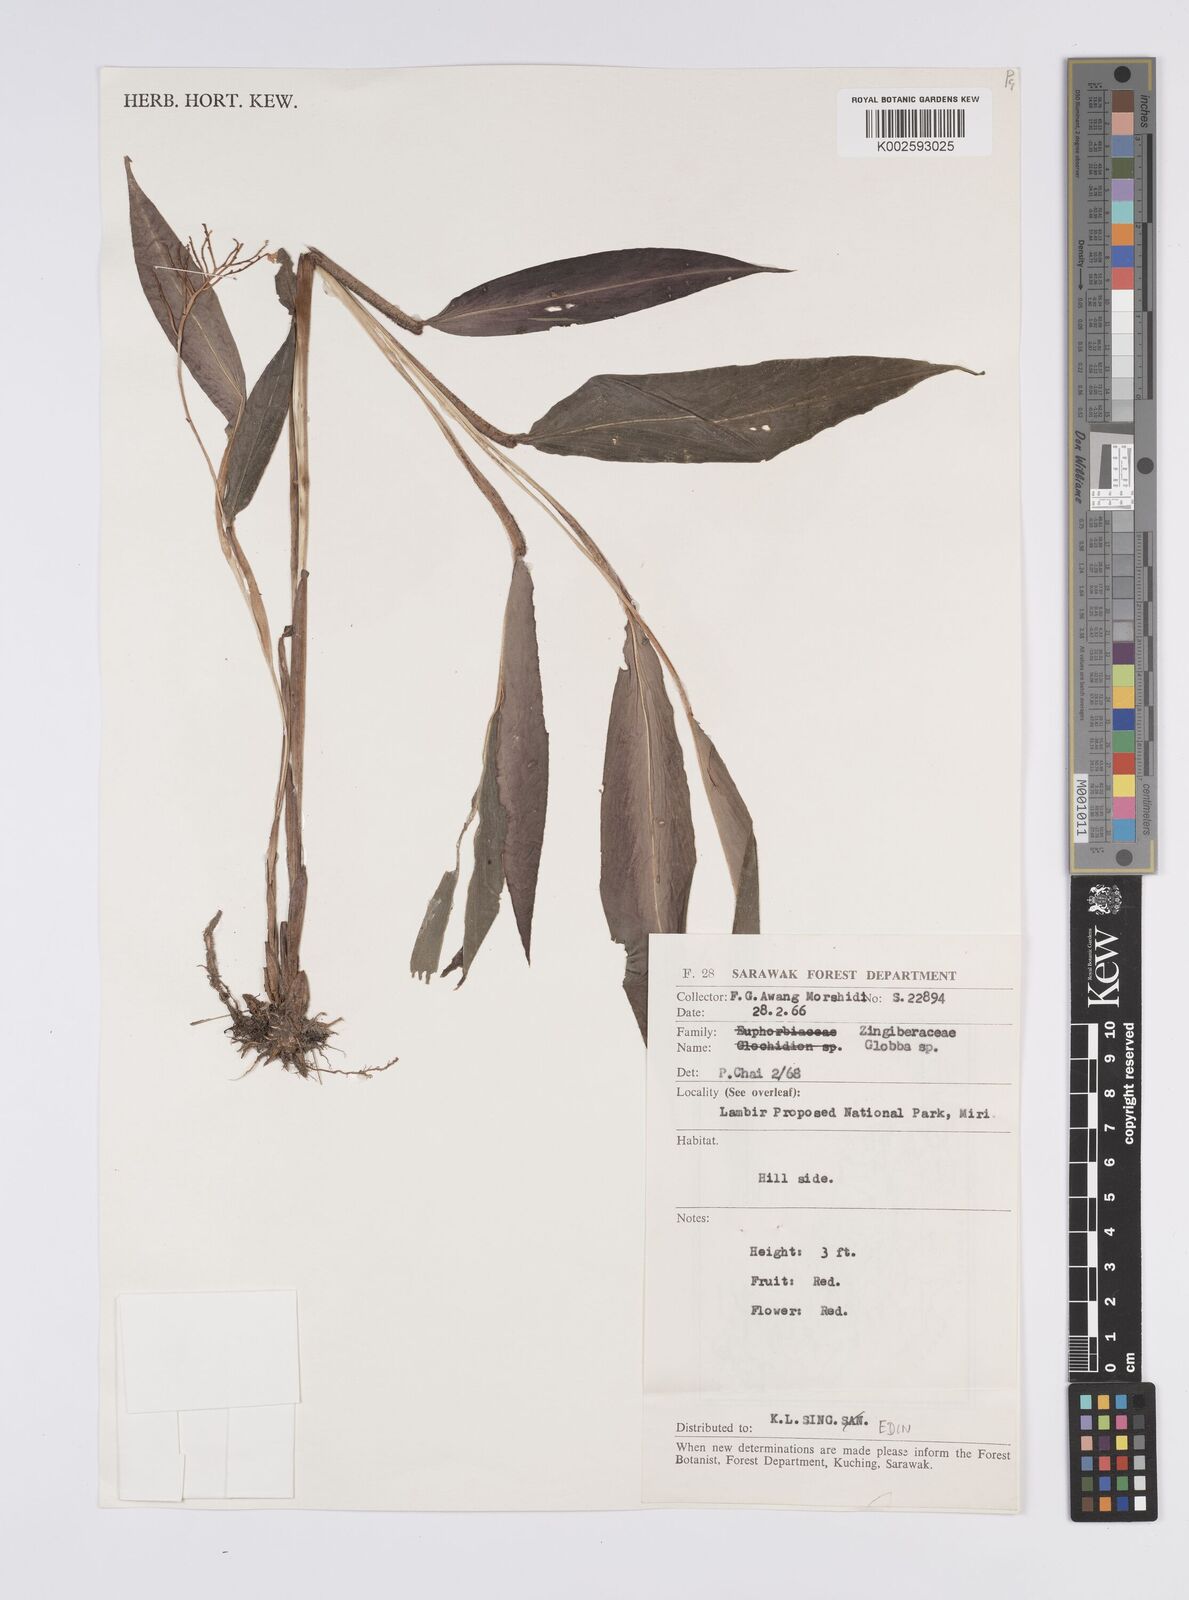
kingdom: Plantae
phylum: Tracheophyta
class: Liliopsida
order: Zingiberales
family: Zingiberaceae
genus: Globba
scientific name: Globba brachyanthera
